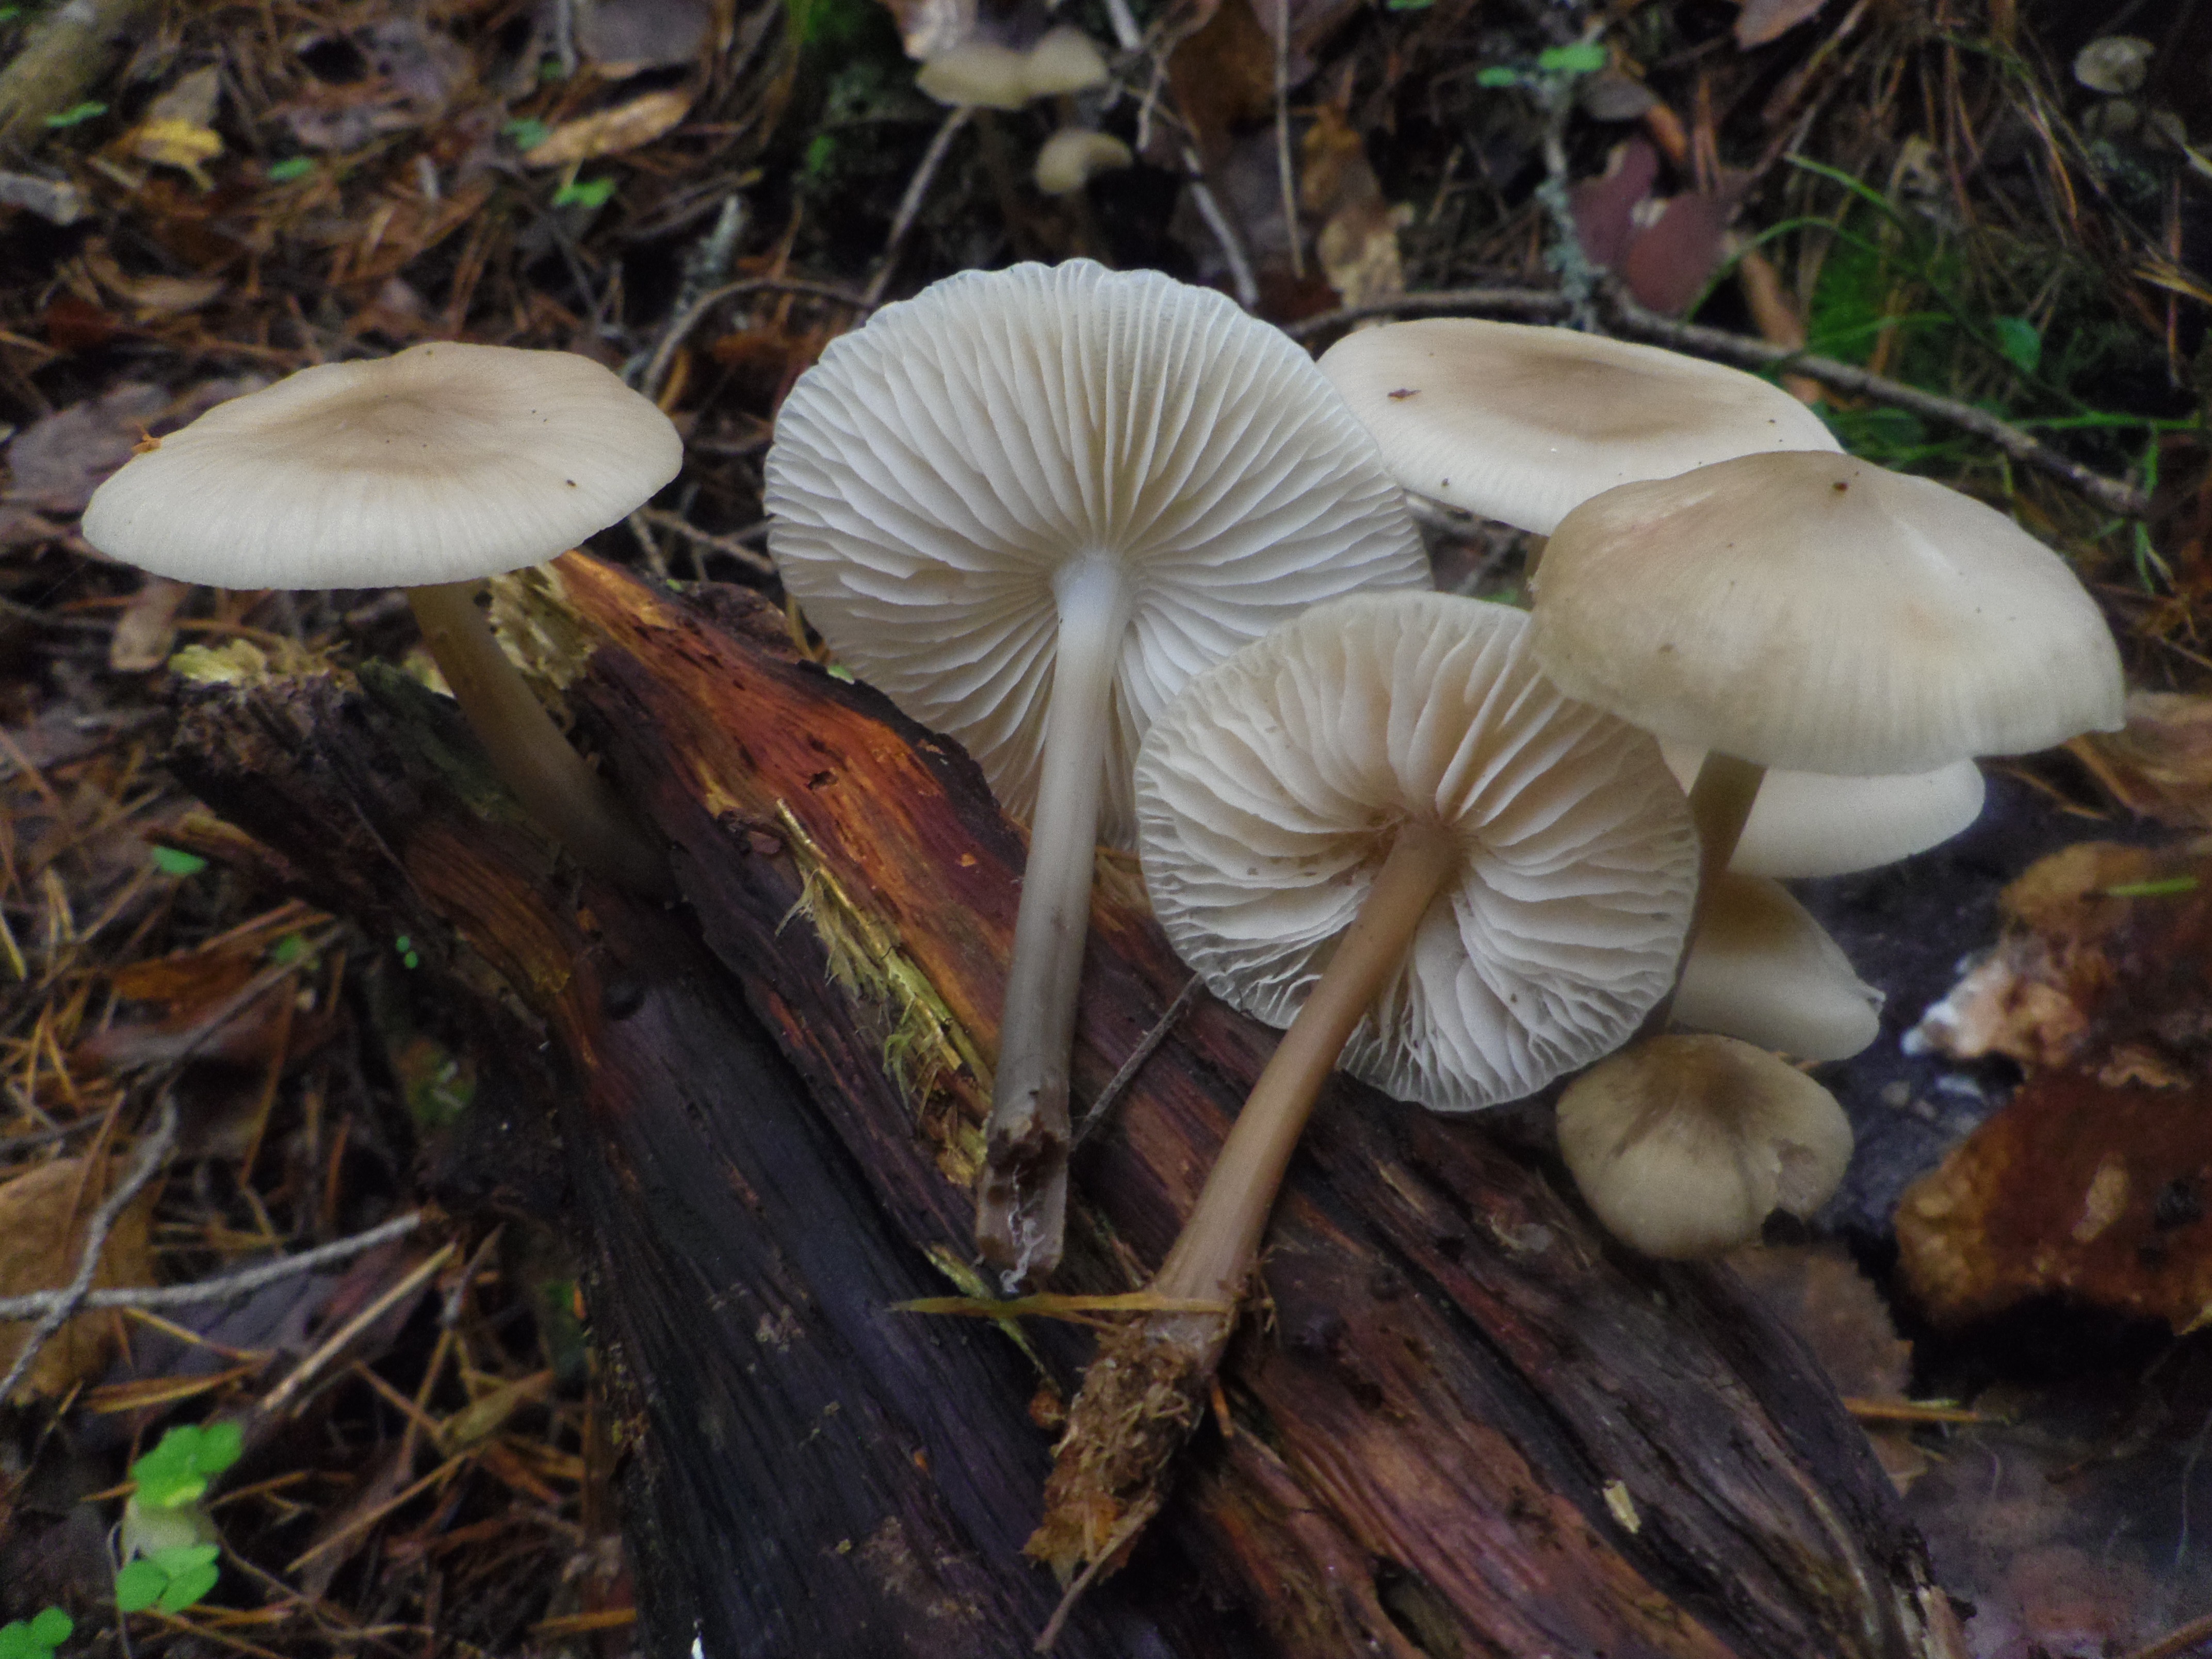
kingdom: Fungi
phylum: Basidiomycota
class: Agaricomycetes
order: Agaricales
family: Mycenaceae
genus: Mycena
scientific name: Mycena galericulata
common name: Bonnet mycena
